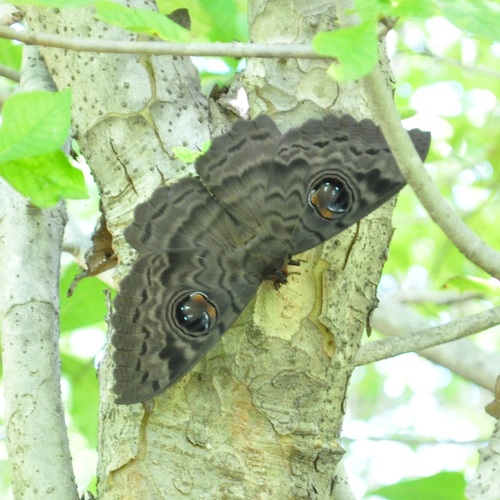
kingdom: Animalia
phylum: Arthropoda
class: Insecta
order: Lepidoptera
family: Erebidae
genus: Erebus
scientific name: Erebus walkeri
